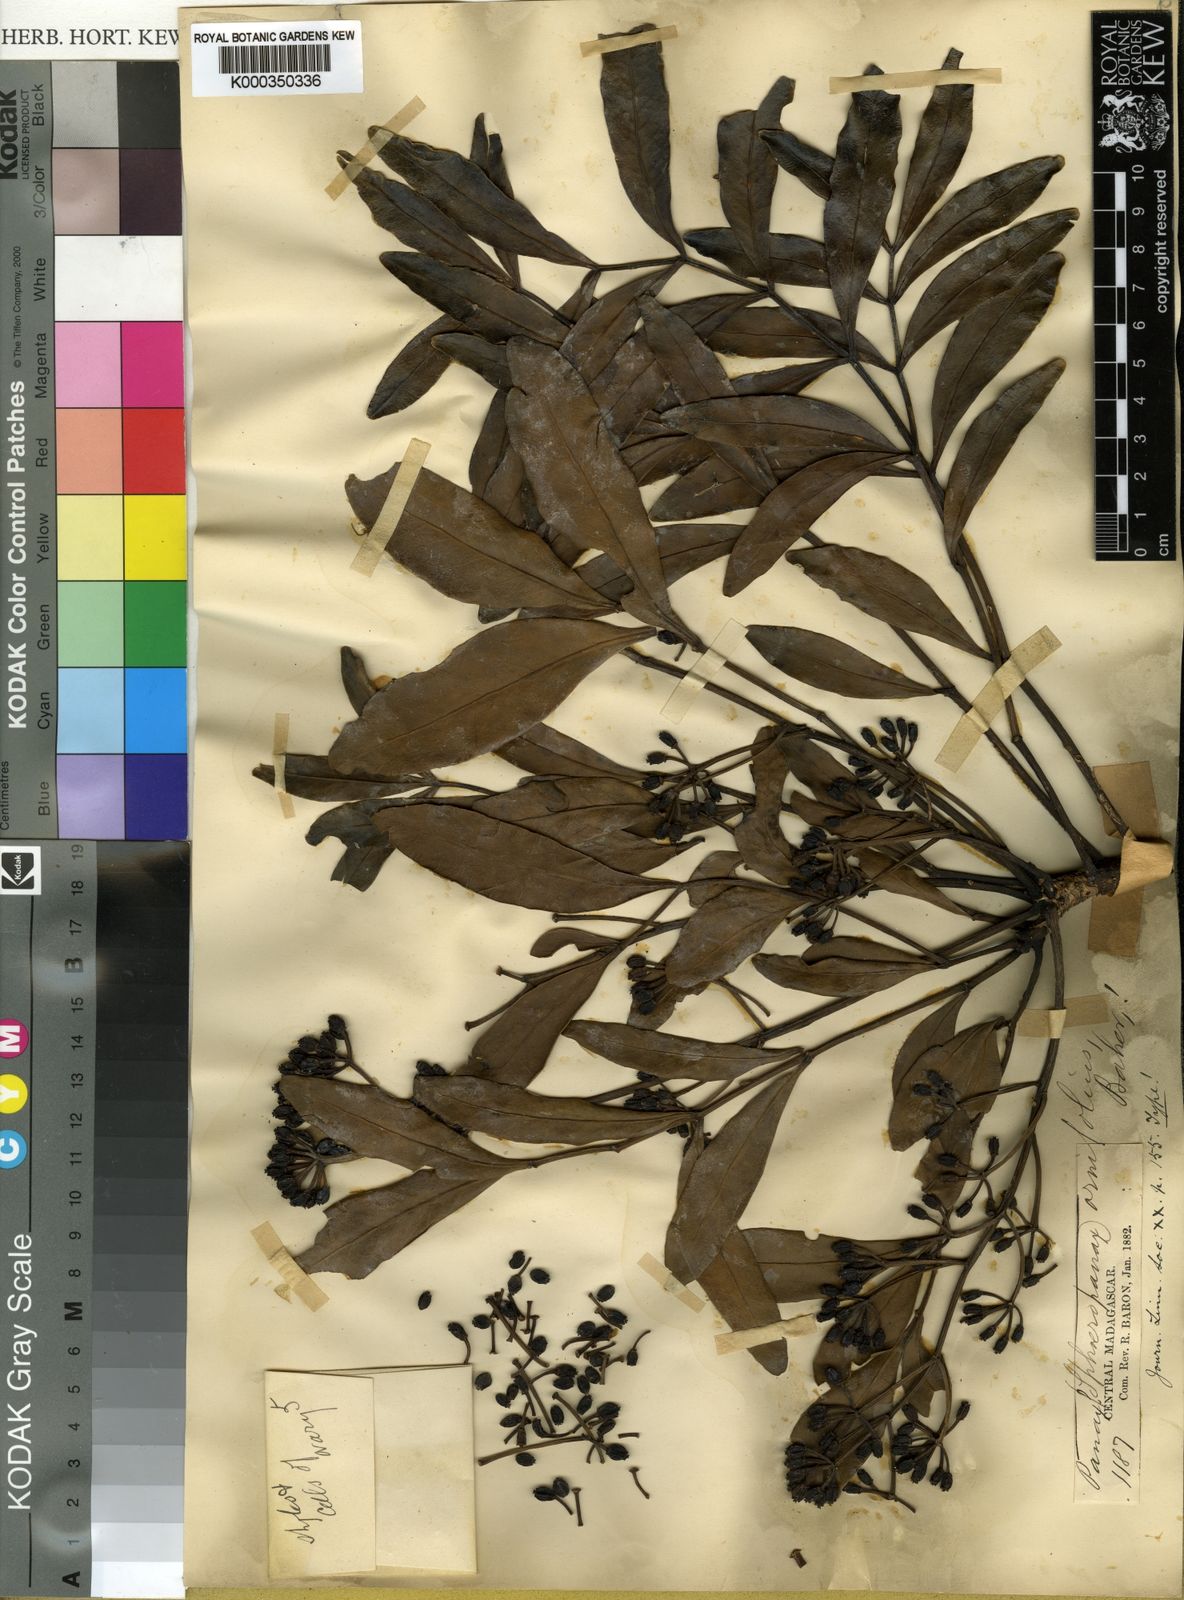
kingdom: Plantae
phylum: Tracheophyta
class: Magnoliopsida
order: Apiales
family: Araliaceae
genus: Polyscias
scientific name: Polyscias ornifolia
